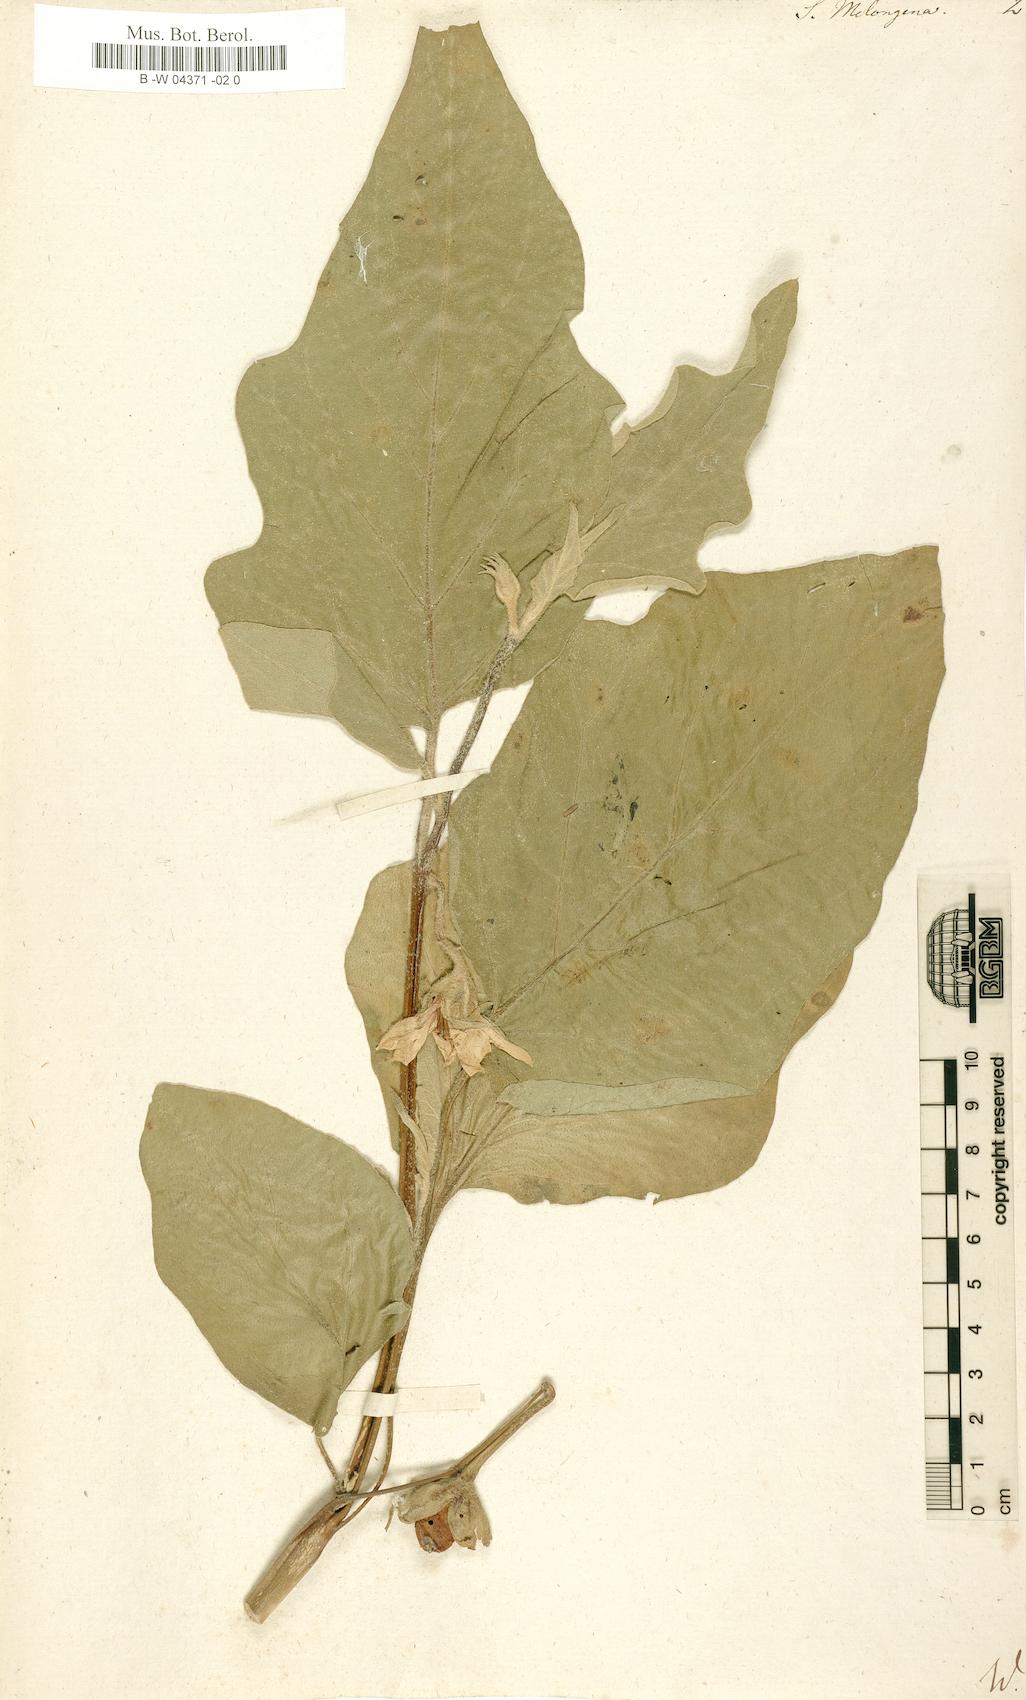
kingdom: Plantae
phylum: Tracheophyta
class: Magnoliopsida
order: Solanales
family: Solanaceae
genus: Solanum
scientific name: Solanum melongena
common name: Eggplant
